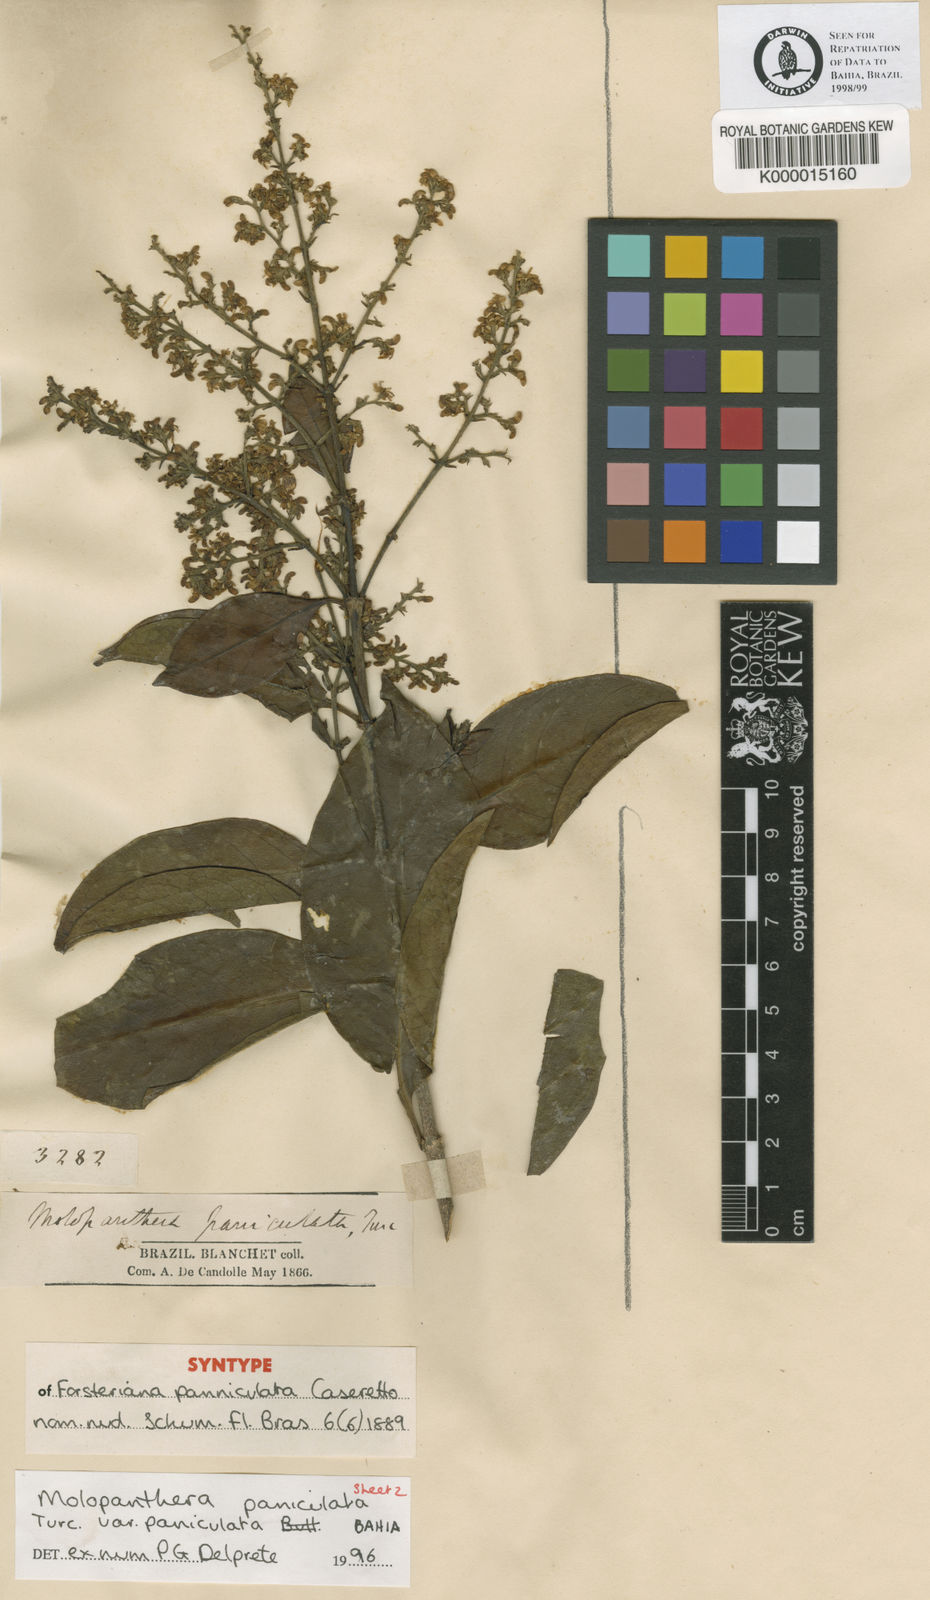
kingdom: Plantae
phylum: Tracheophyta
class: Magnoliopsida
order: Gentianales
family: Rubiaceae
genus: Molopanthera
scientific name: Molopanthera paniculata
